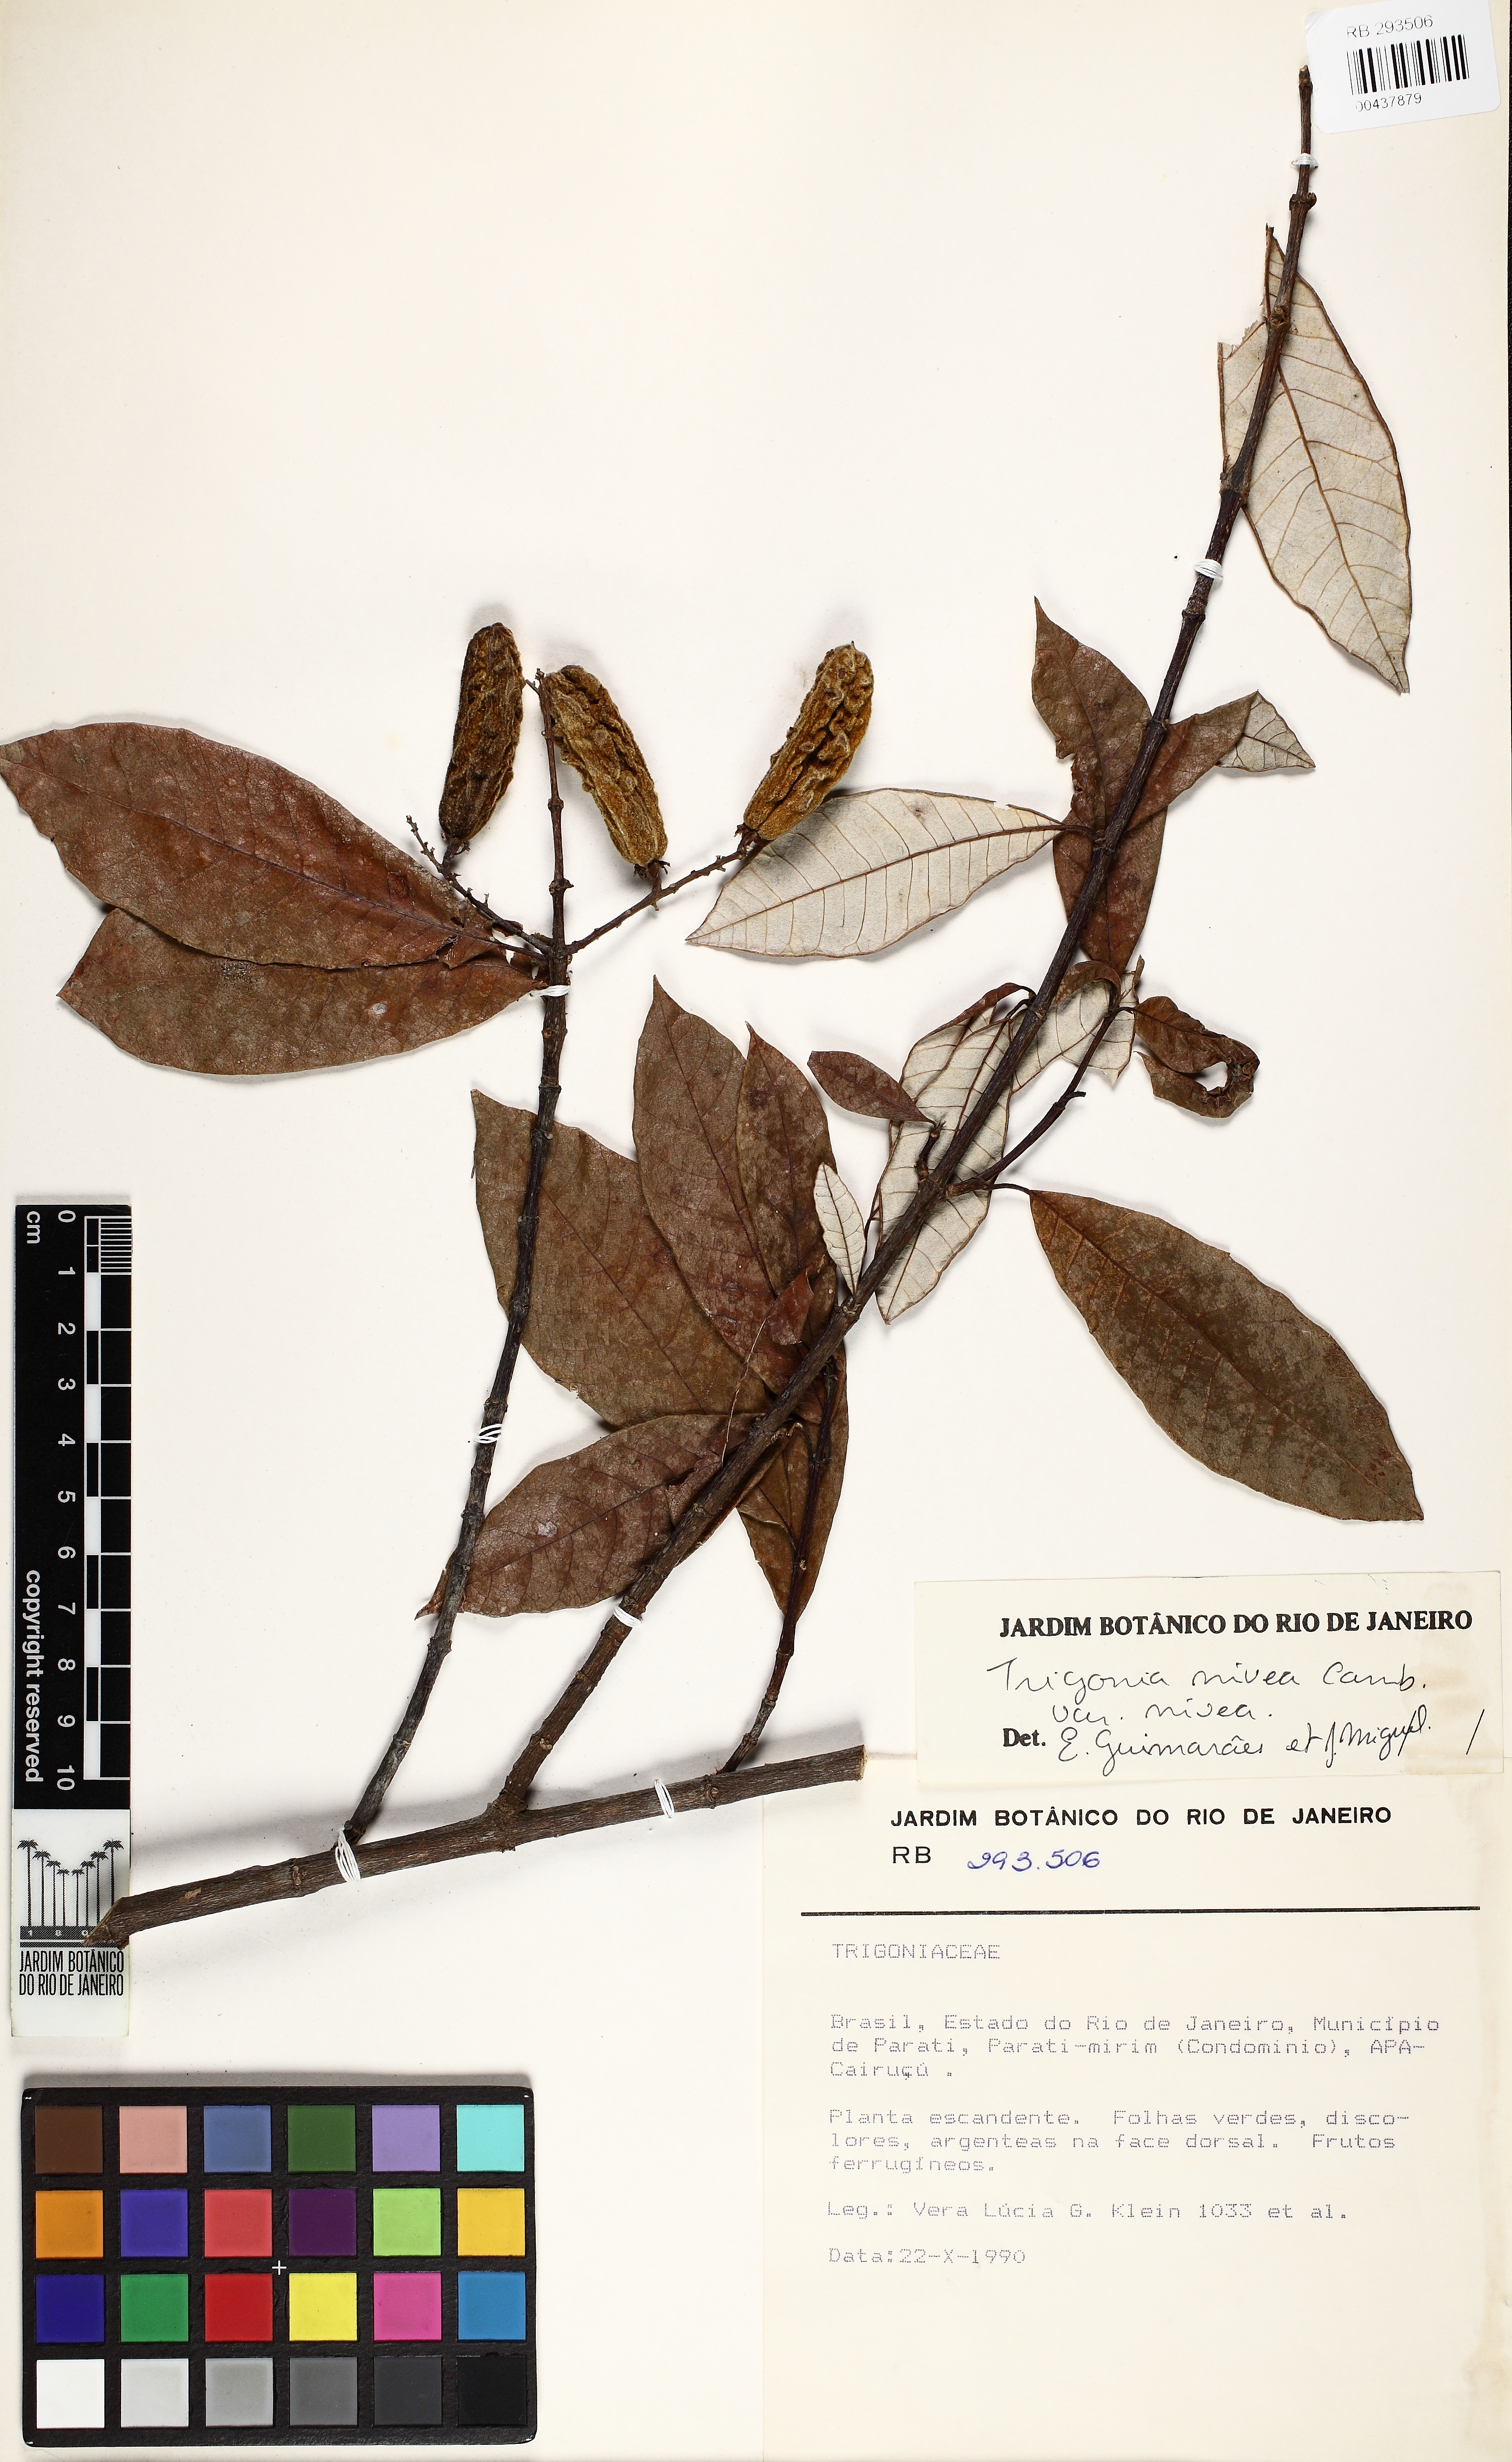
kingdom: Plantae
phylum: Tracheophyta
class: Magnoliopsida
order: Malpighiales
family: Trigoniaceae
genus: Trigonia
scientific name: Trigonia nivea
